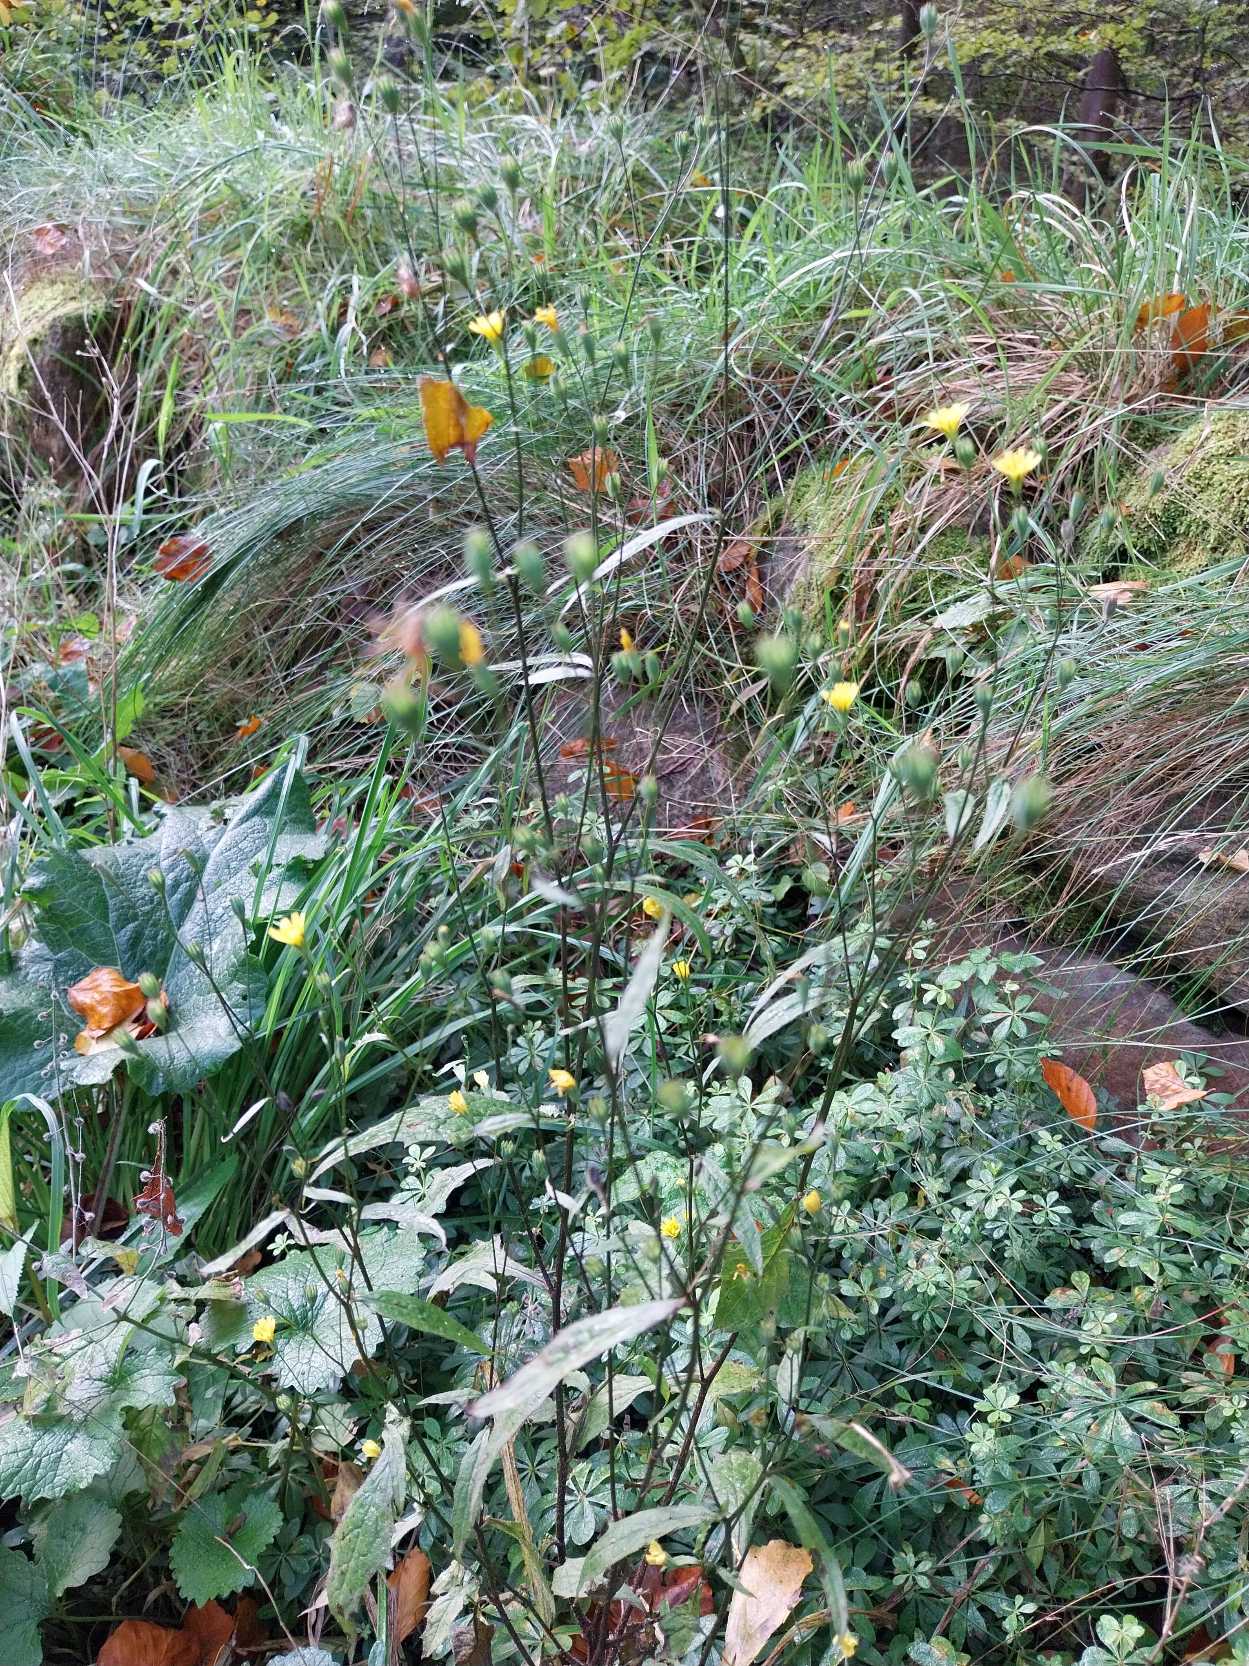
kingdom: Plantae
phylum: Tracheophyta
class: Magnoliopsida
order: Asterales
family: Asteraceae
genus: Lapsana
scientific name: Lapsana communis
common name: Haremad
